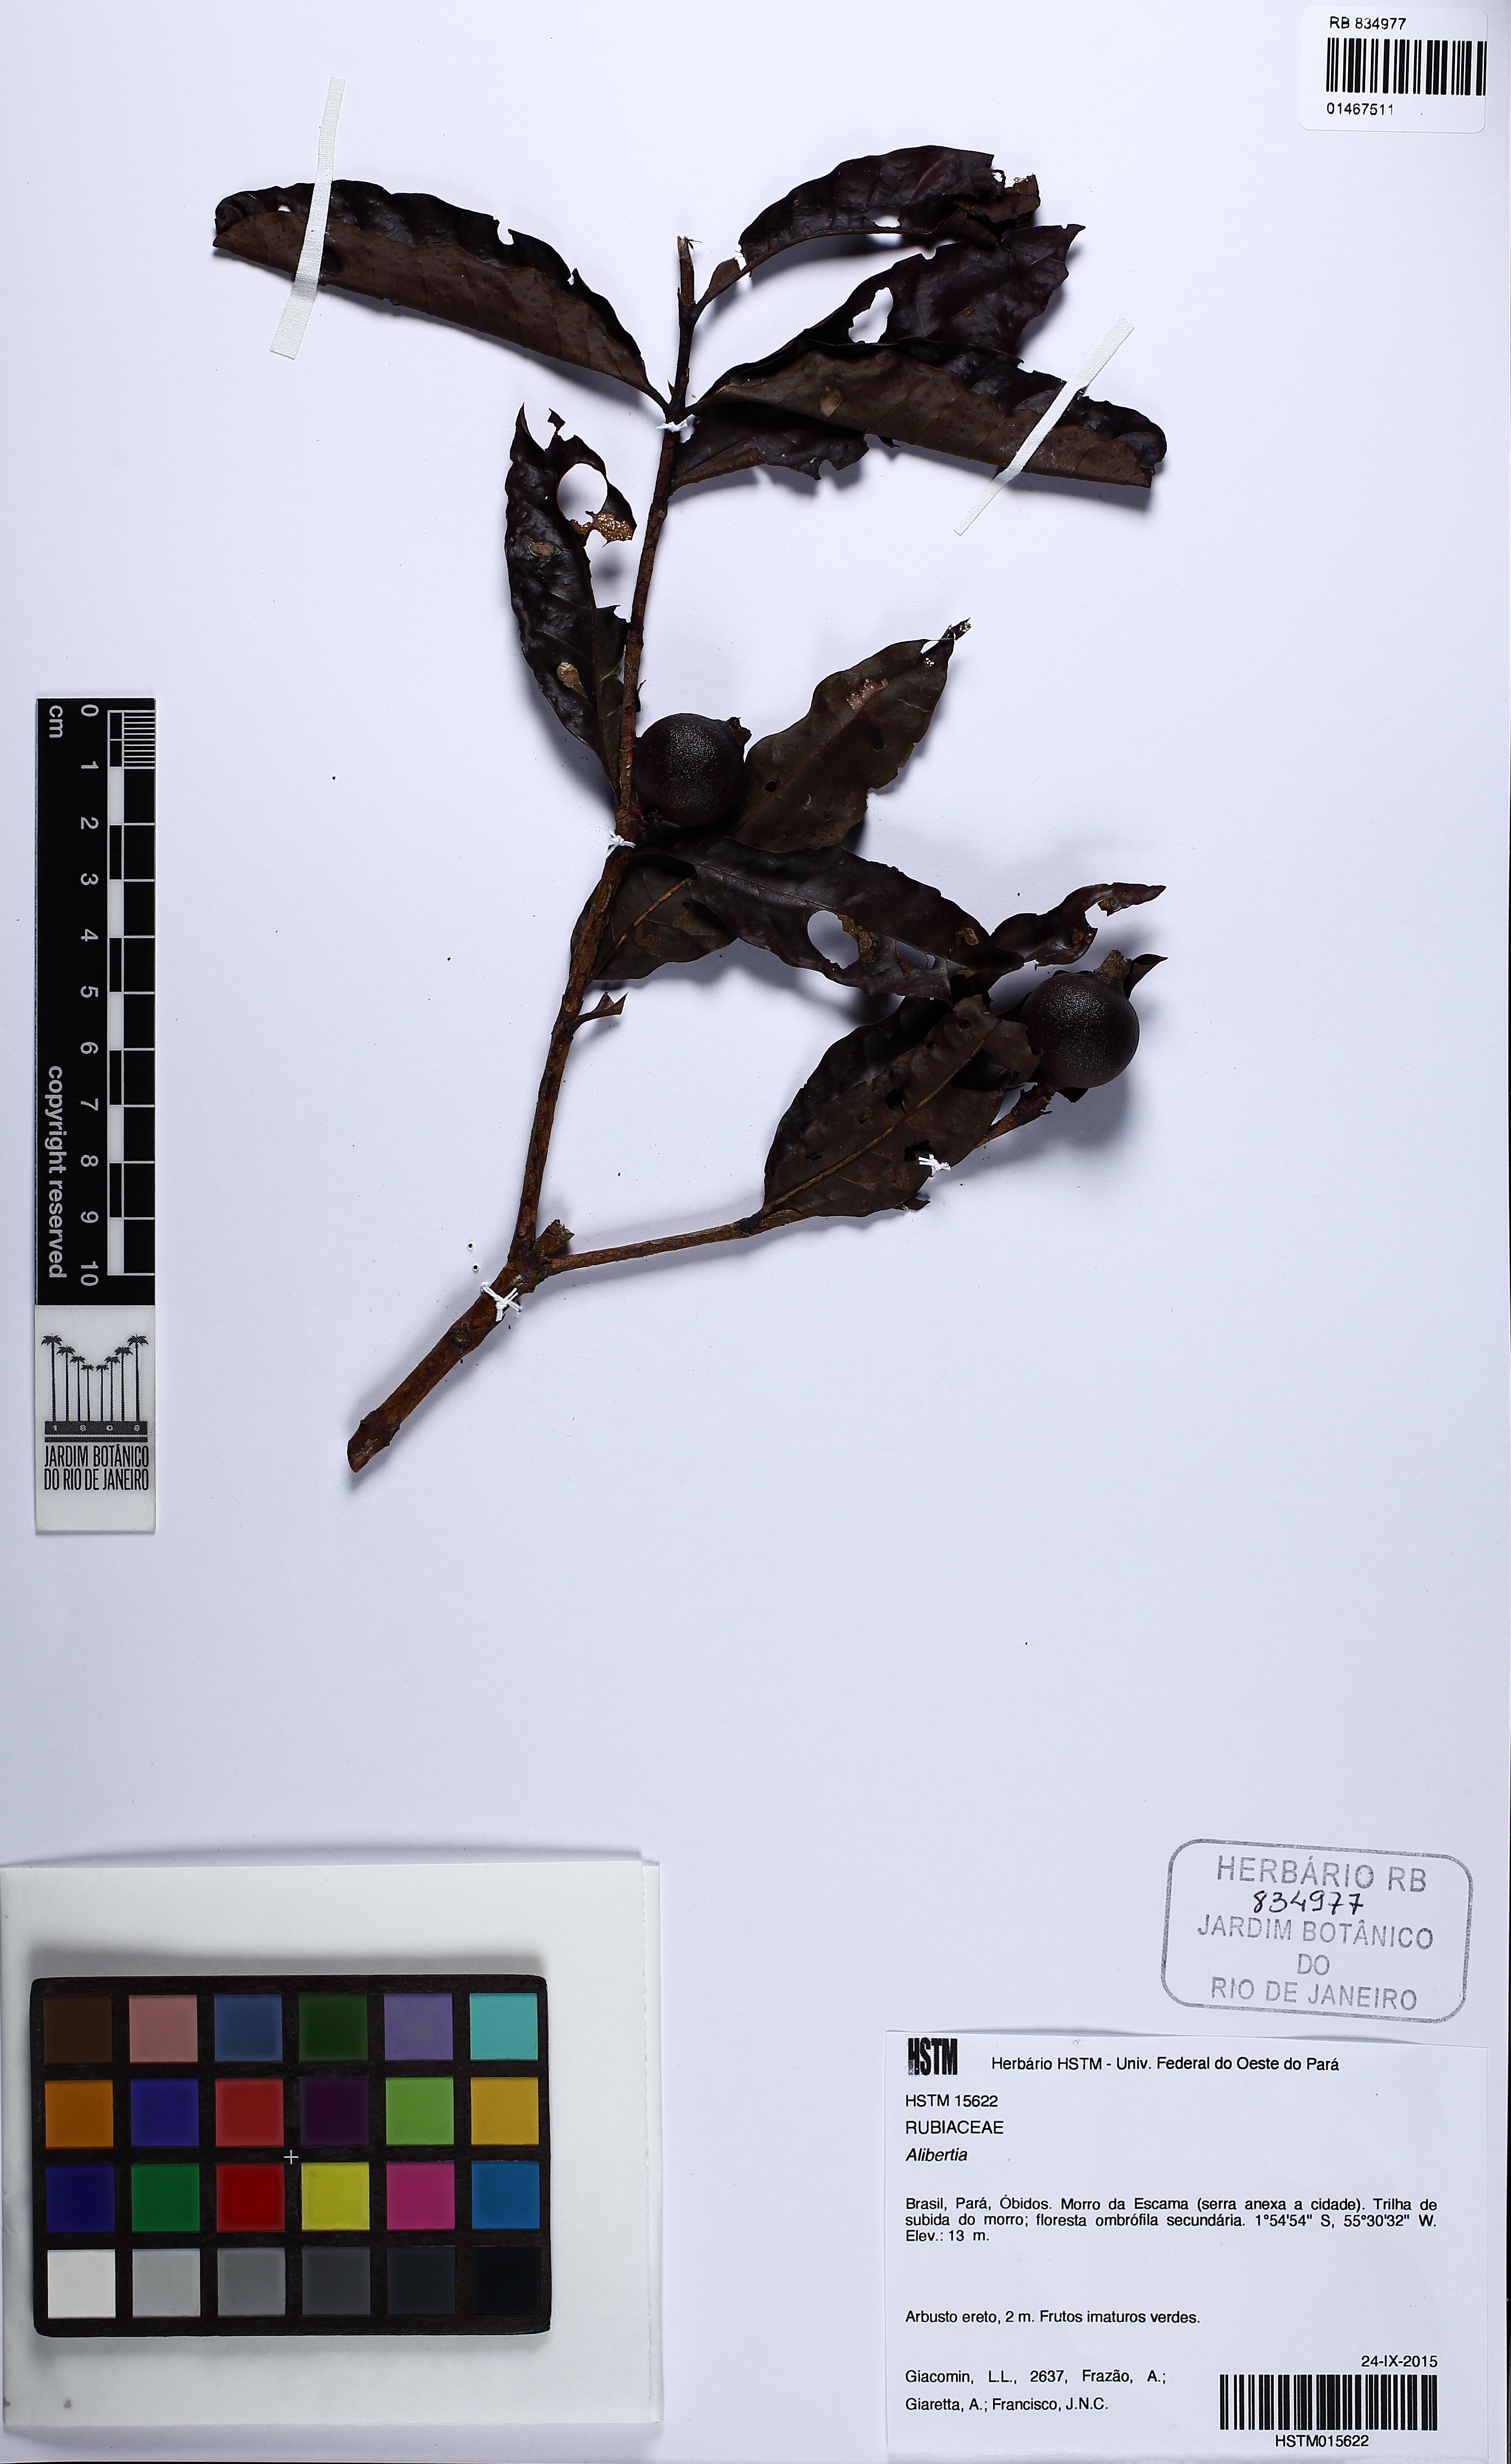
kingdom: Plantae
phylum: Tracheophyta
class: Magnoliopsida
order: Gentianales
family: Rubiaceae
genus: Alibertia
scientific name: Alibertia
